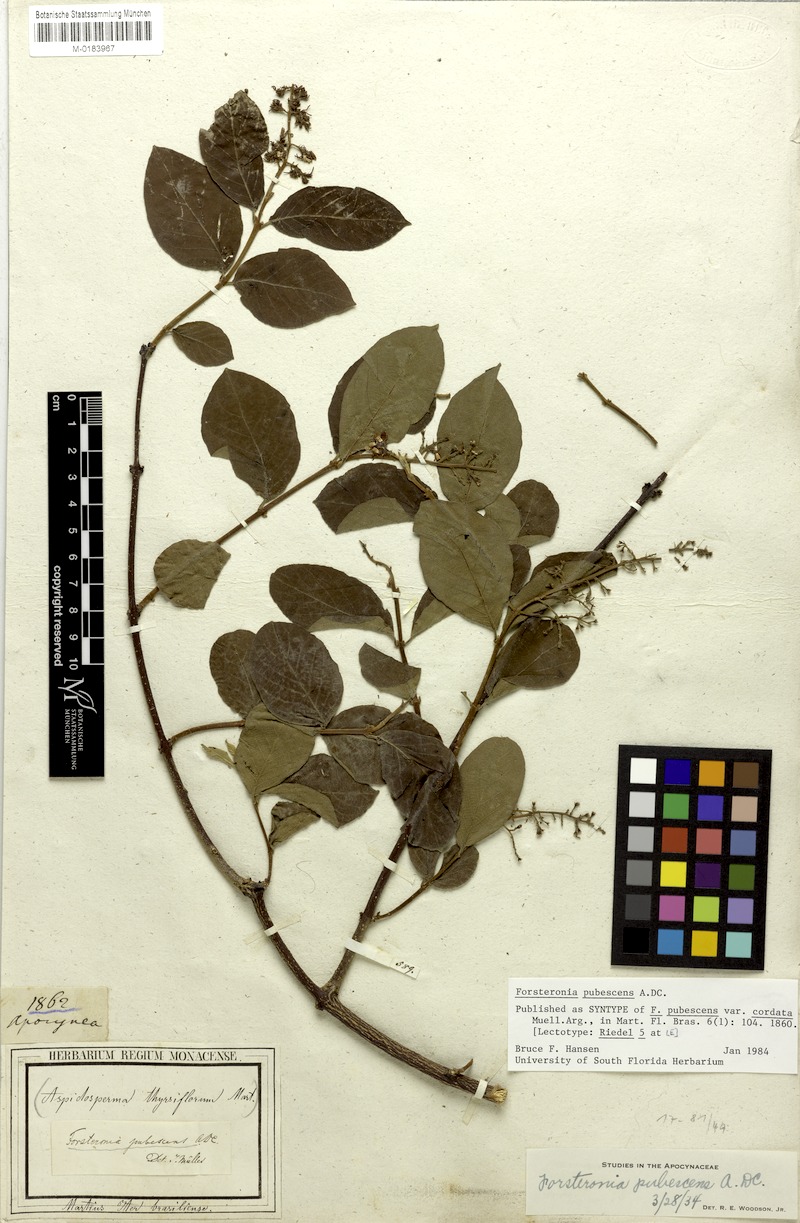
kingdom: Plantae
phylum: Tracheophyta
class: Magnoliopsida
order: Gentianales
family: Apocynaceae
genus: Forsteronia
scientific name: Forsteronia pubescens
